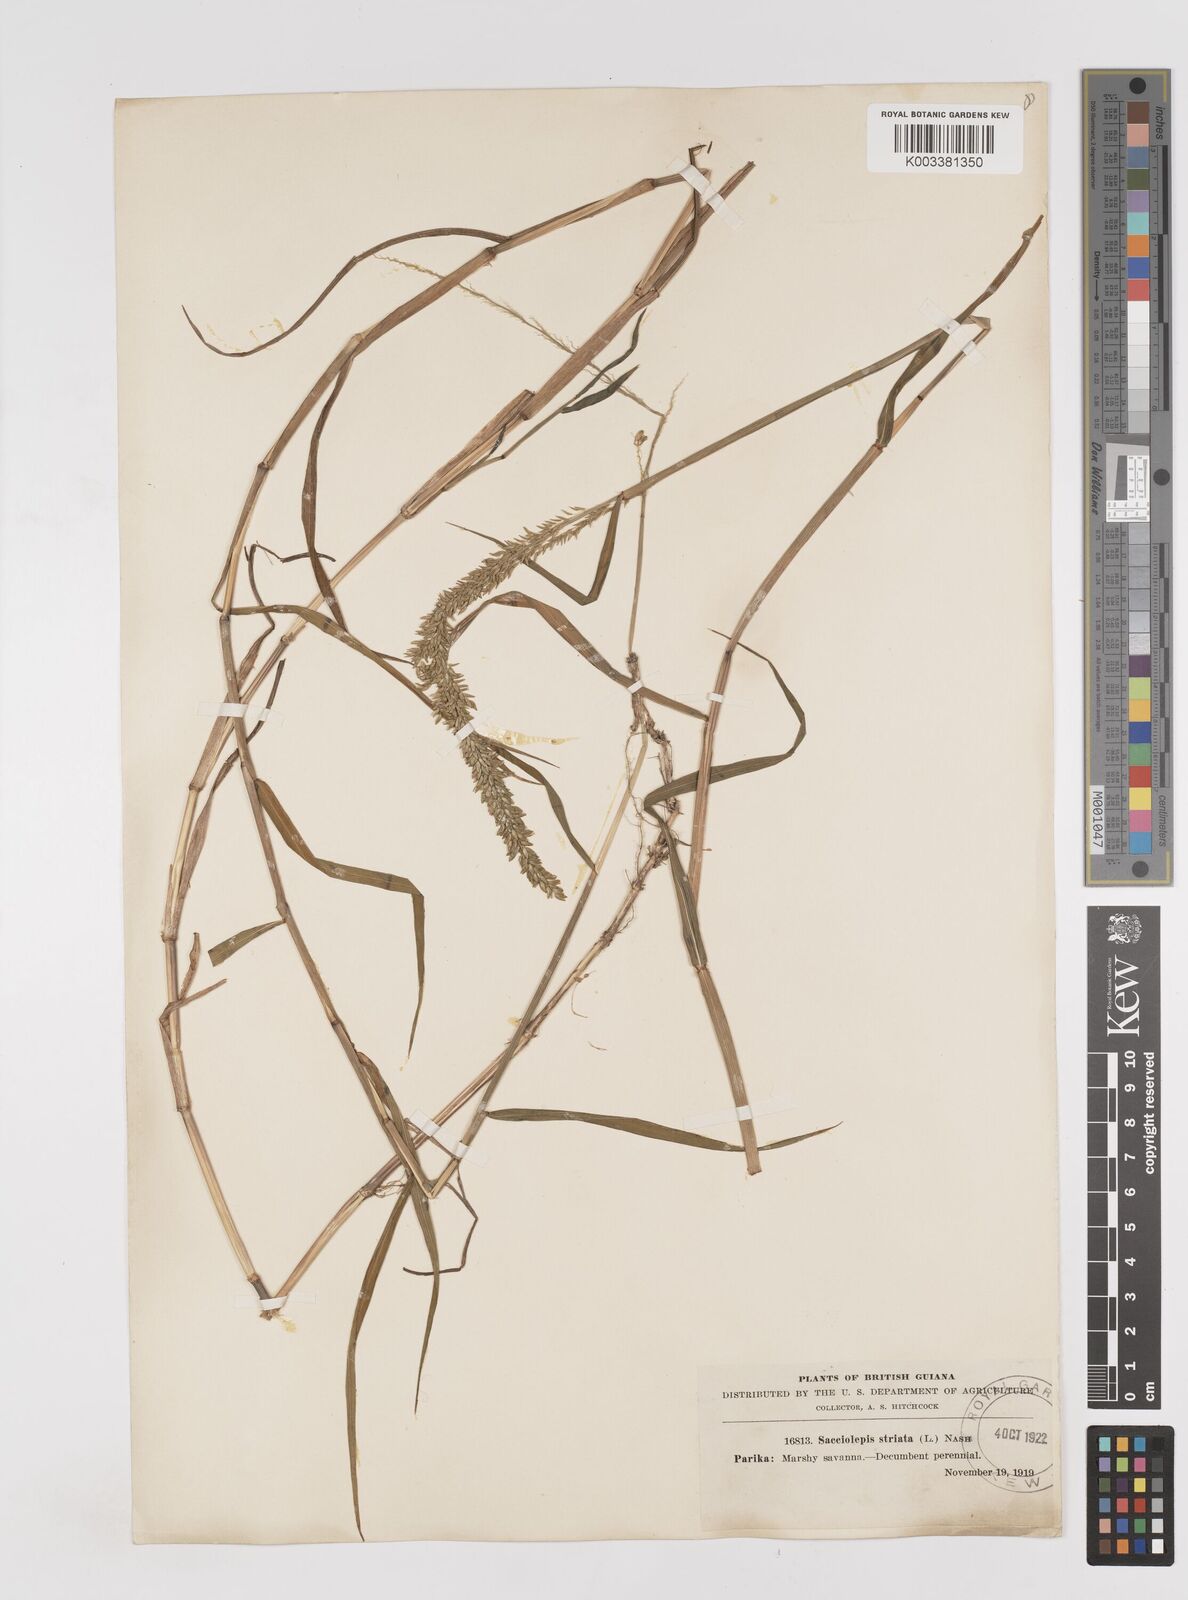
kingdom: Plantae
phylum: Tracheophyta
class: Liliopsida
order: Poales
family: Poaceae
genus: Sacciolepis
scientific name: Sacciolepis striata
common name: American cupscale
